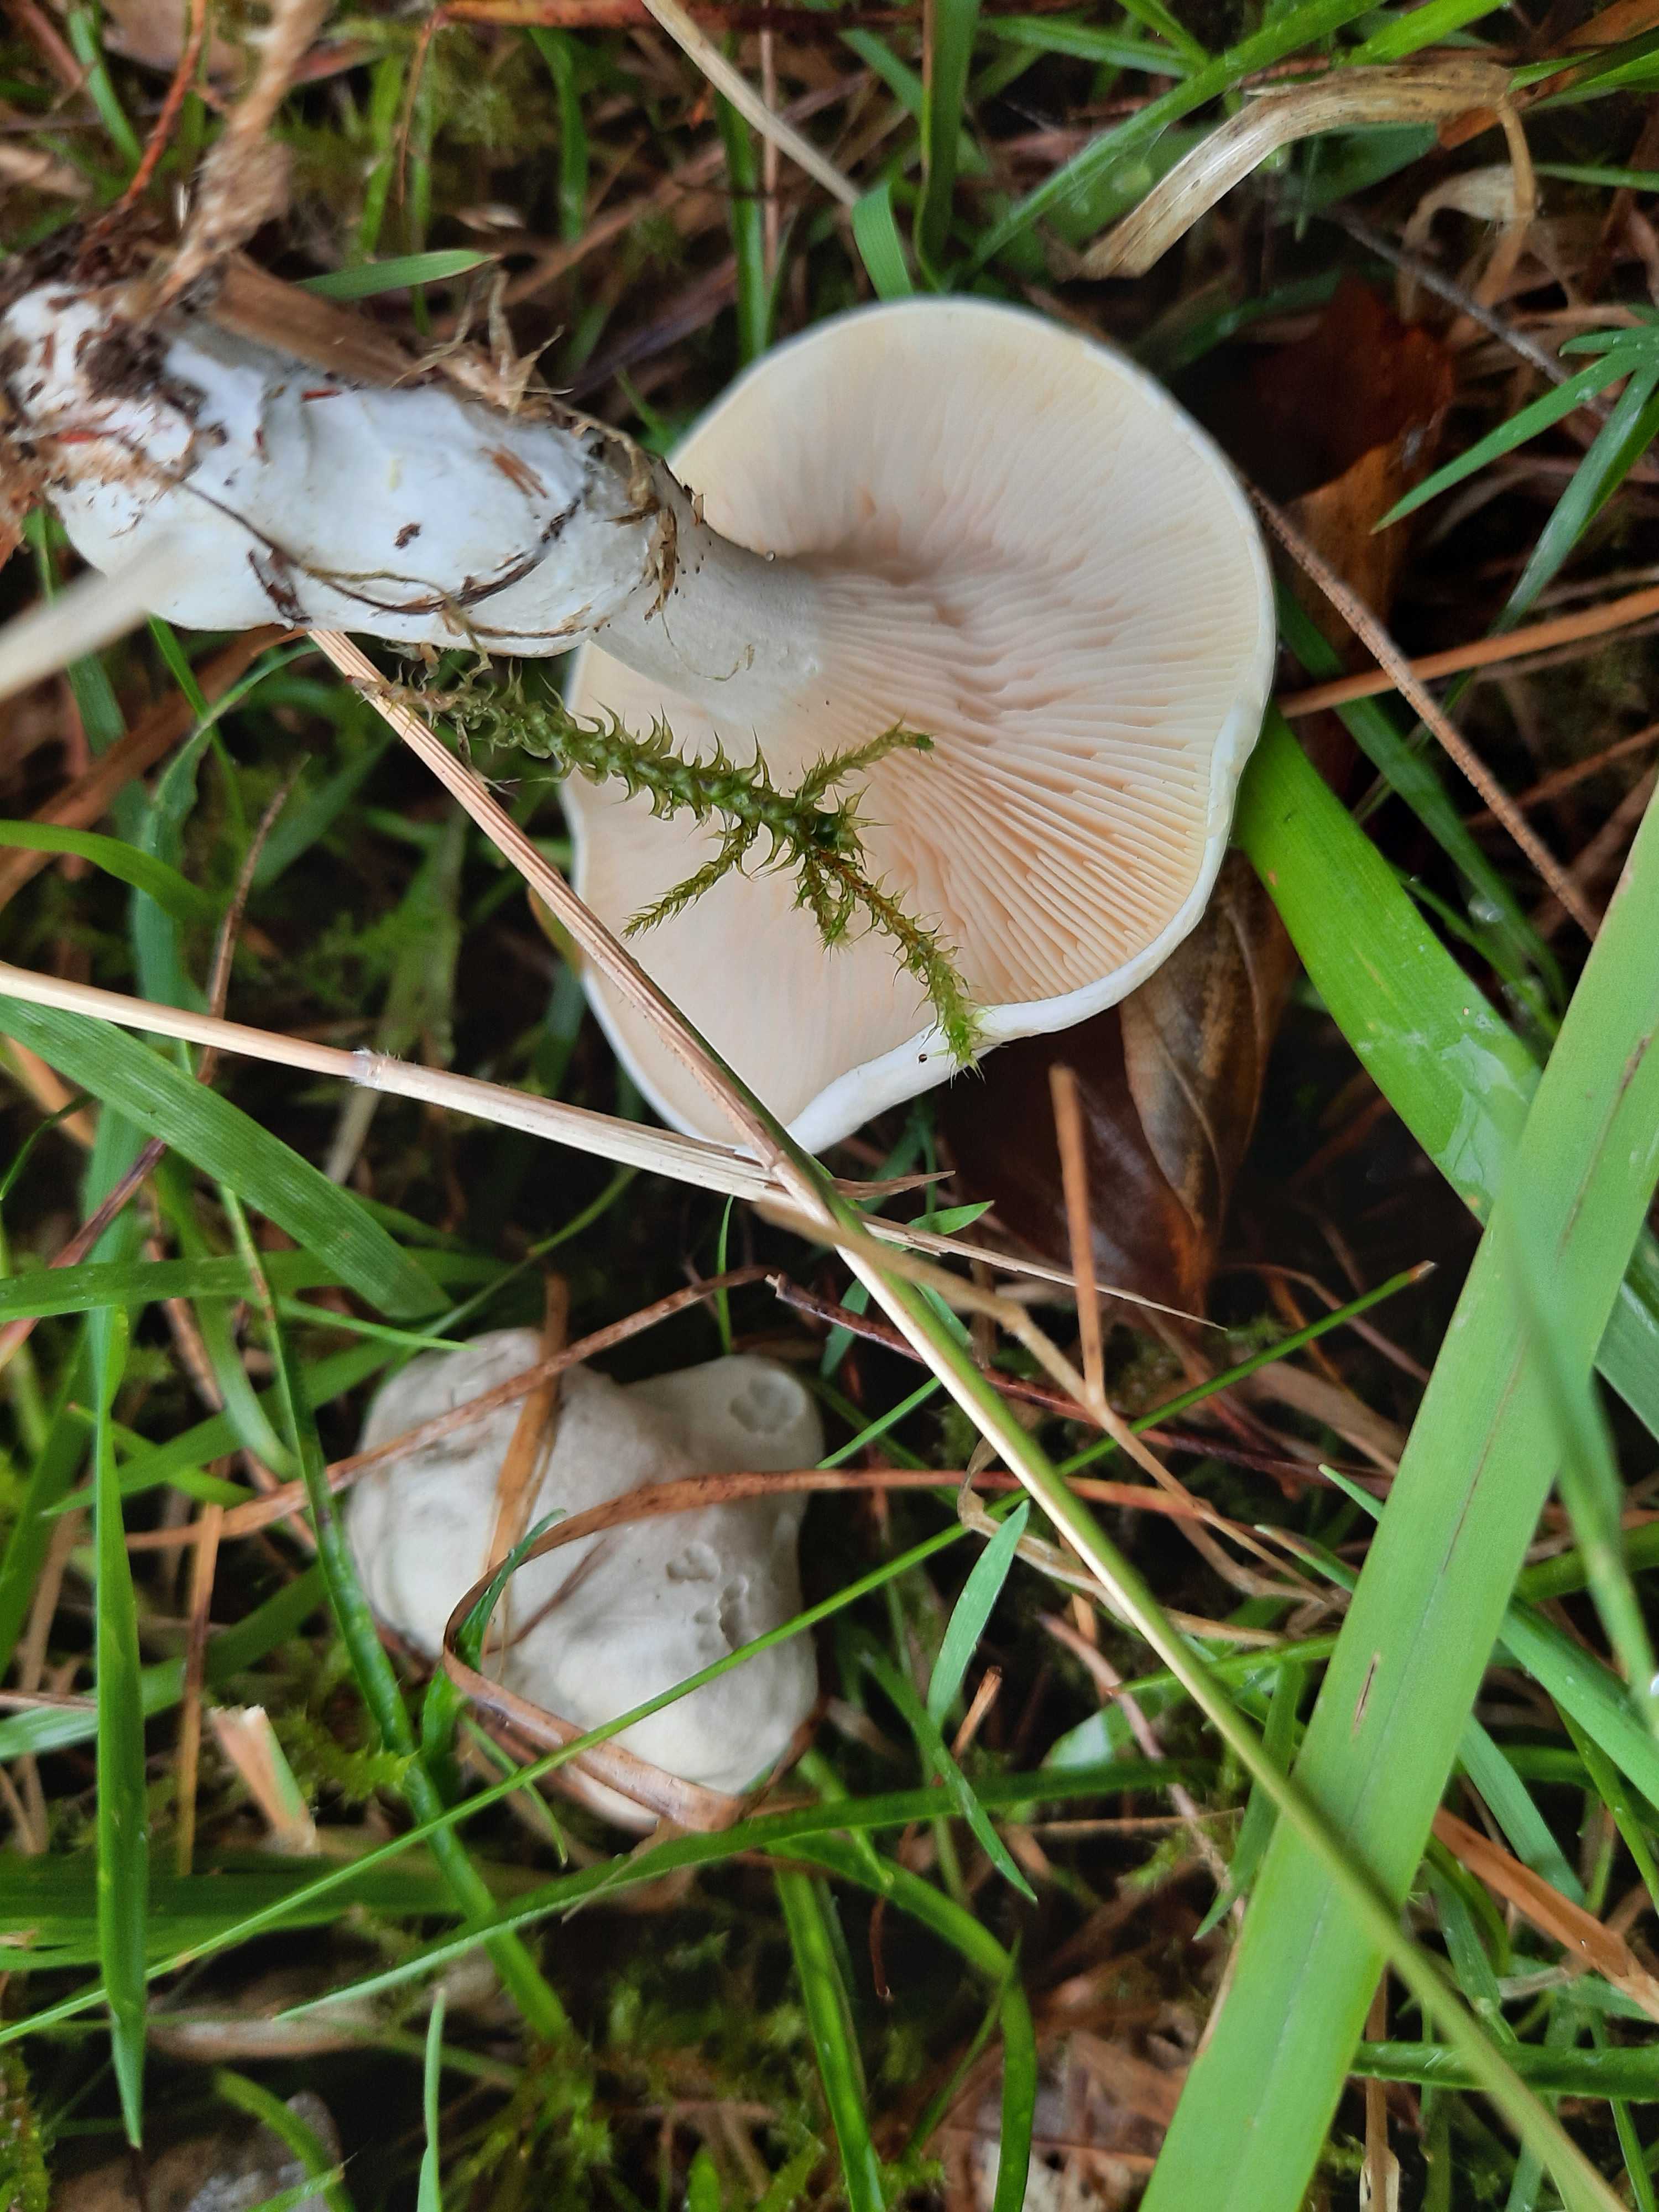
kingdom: Fungi
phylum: Basidiomycota
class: Agaricomycetes
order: Agaricales
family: Entolomataceae
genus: Clitopilus
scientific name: Clitopilus prunulus
